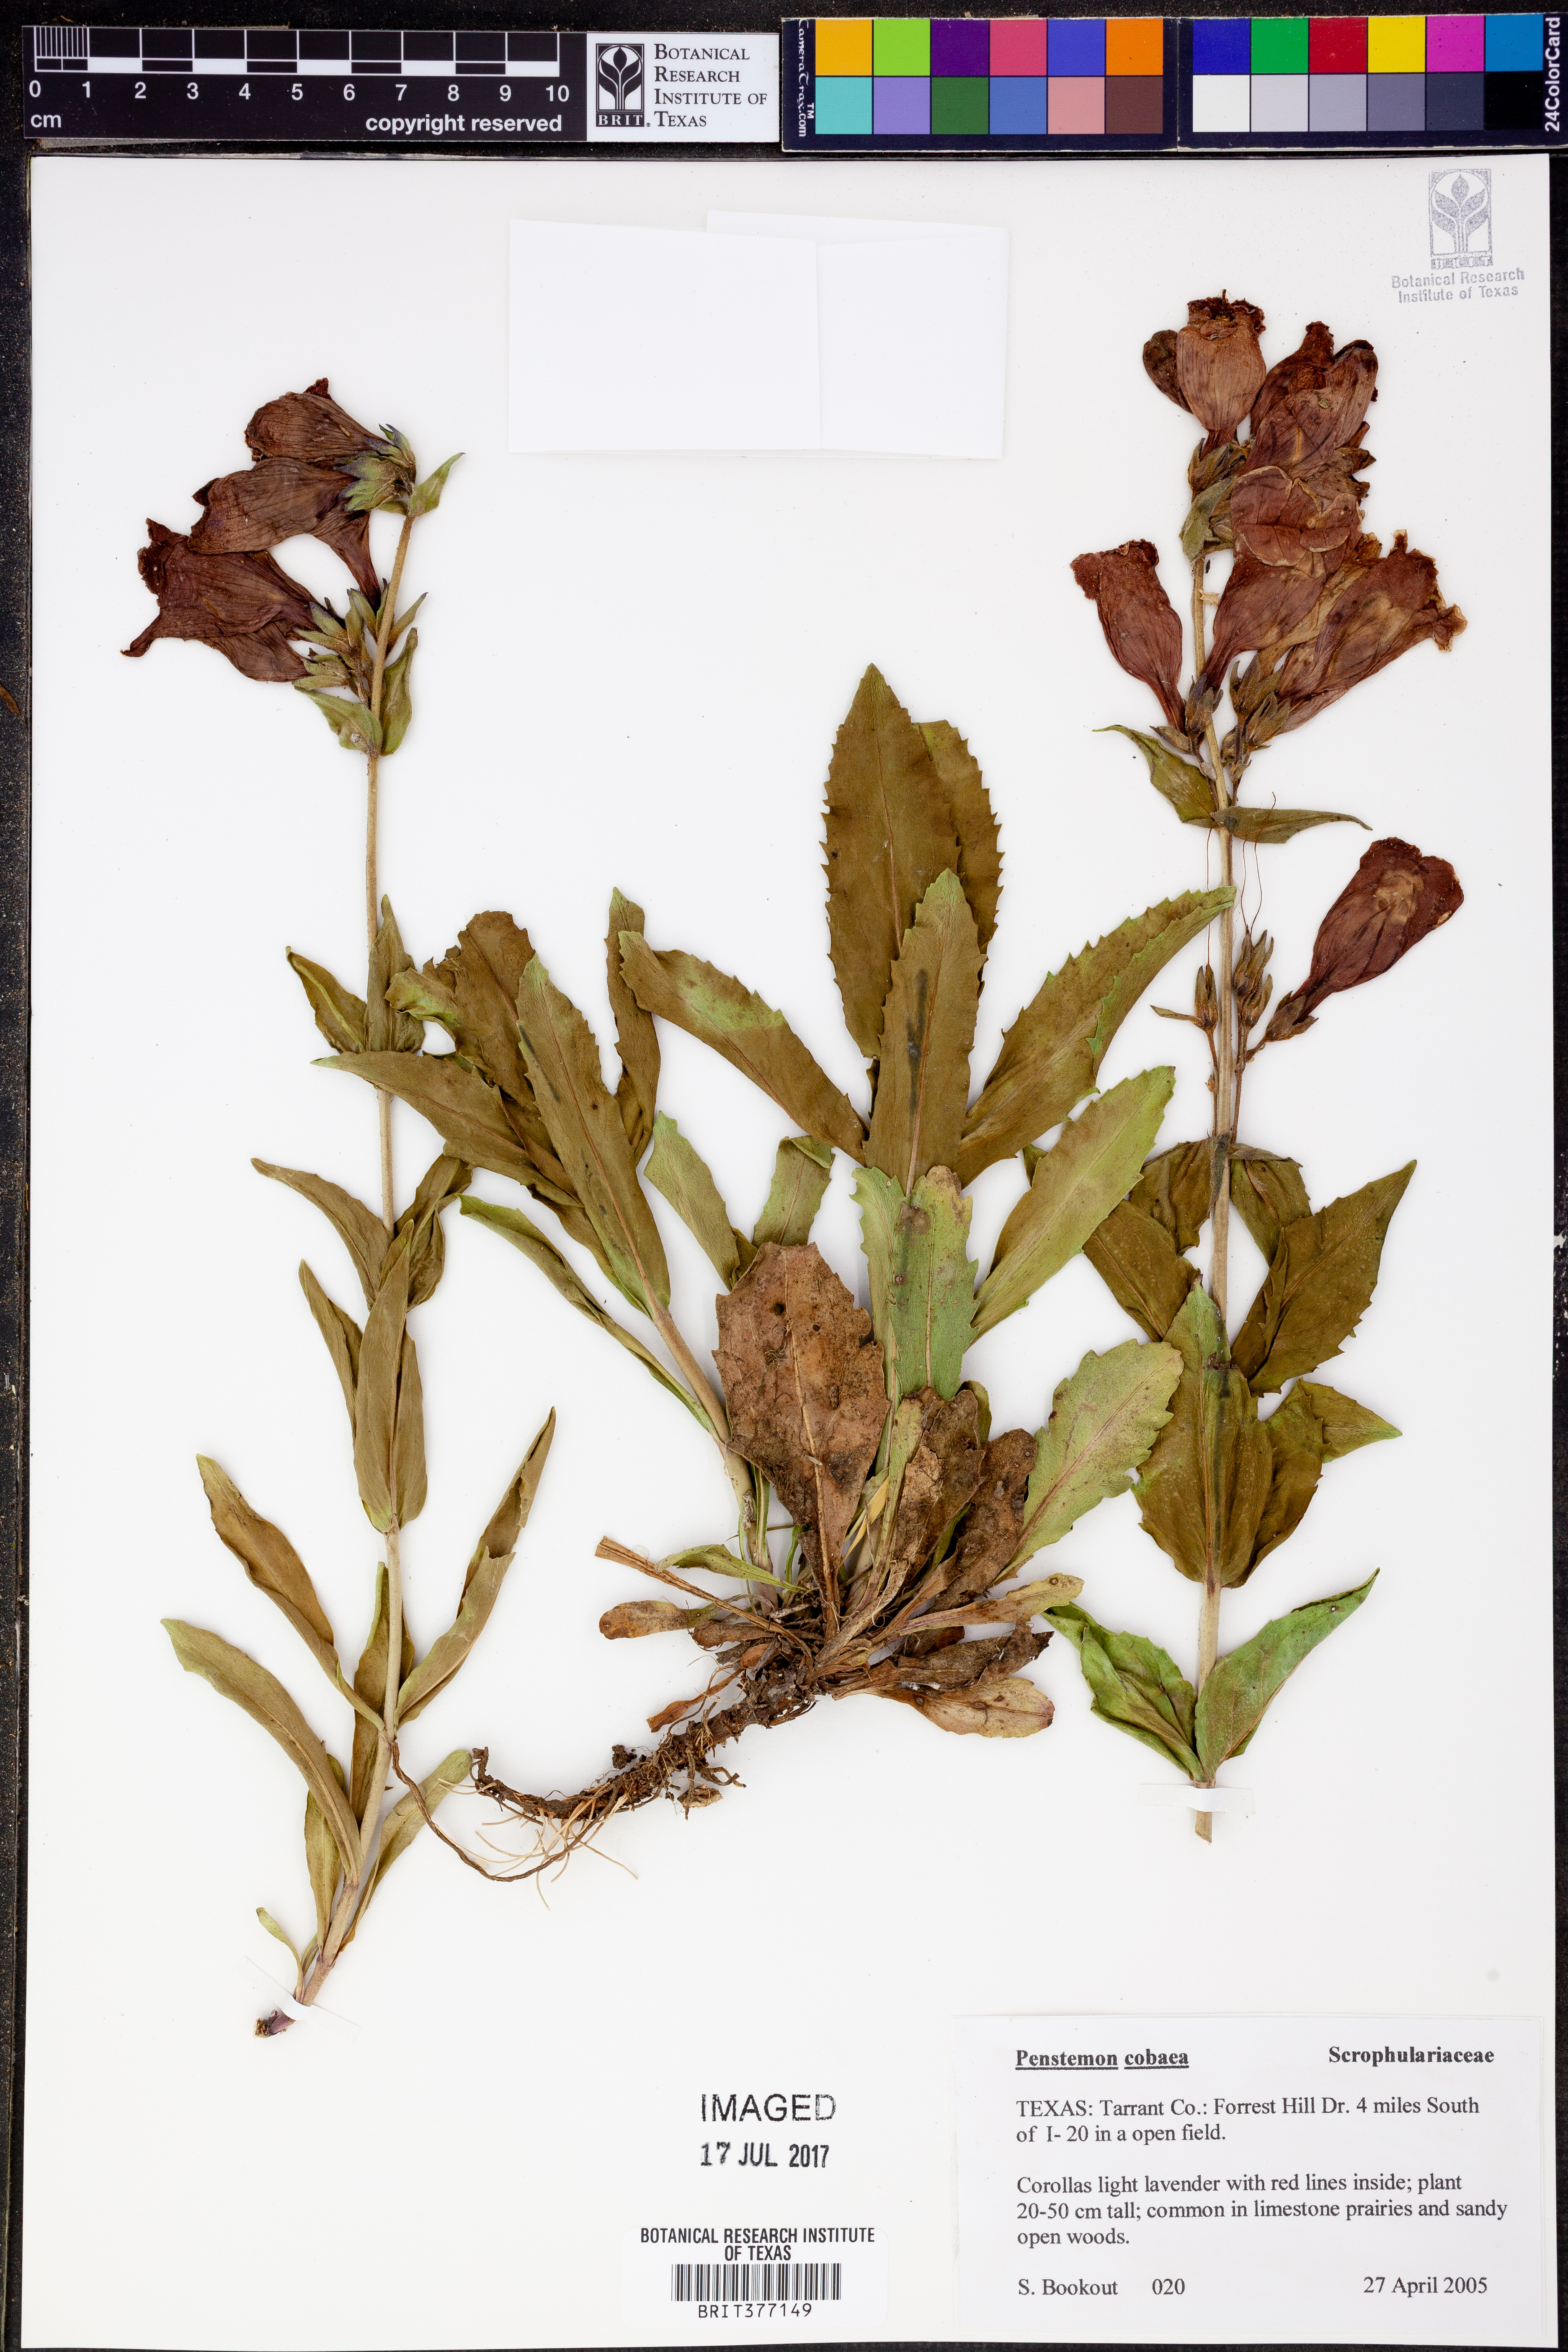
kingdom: Plantae
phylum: Tracheophyta
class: Magnoliopsida
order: Lamiales
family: Plantaginaceae
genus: Penstemon
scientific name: Penstemon cobaea
